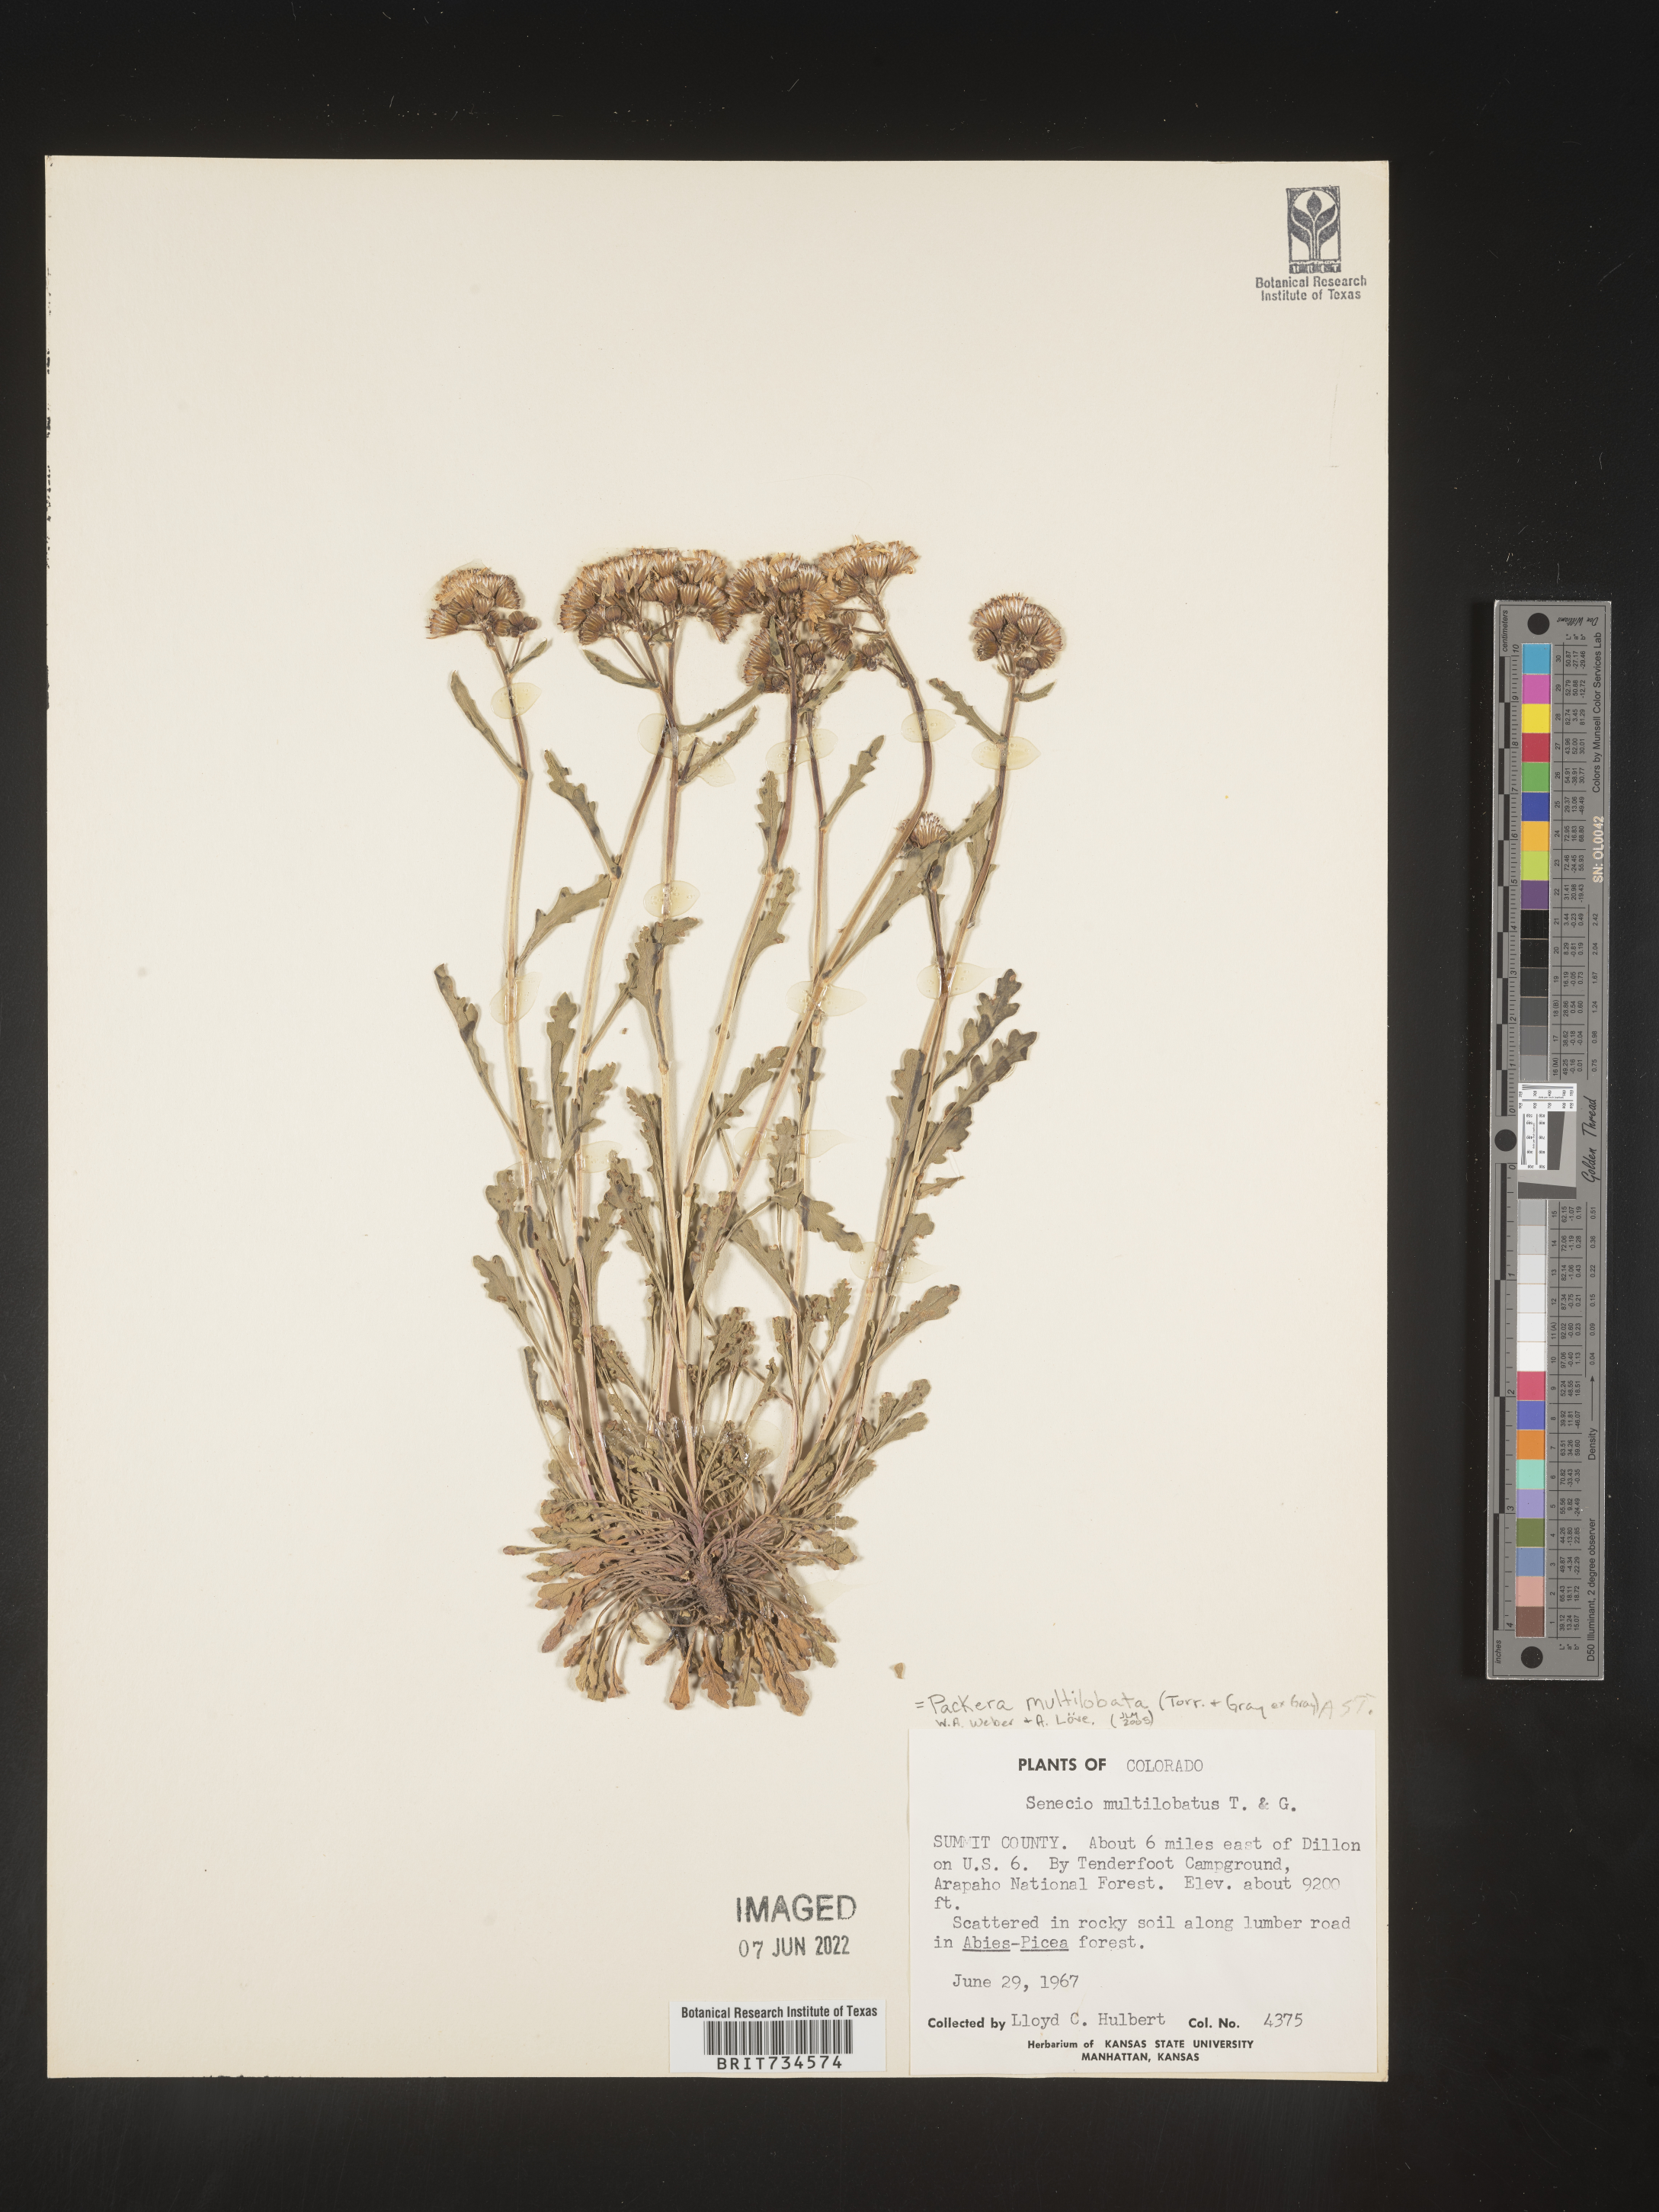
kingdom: Plantae
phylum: Tracheophyta
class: Magnoliopsida
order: Asterales
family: Asteraceae
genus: Packera
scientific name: Packera multilobata
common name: Lobe-leaf groundsel
